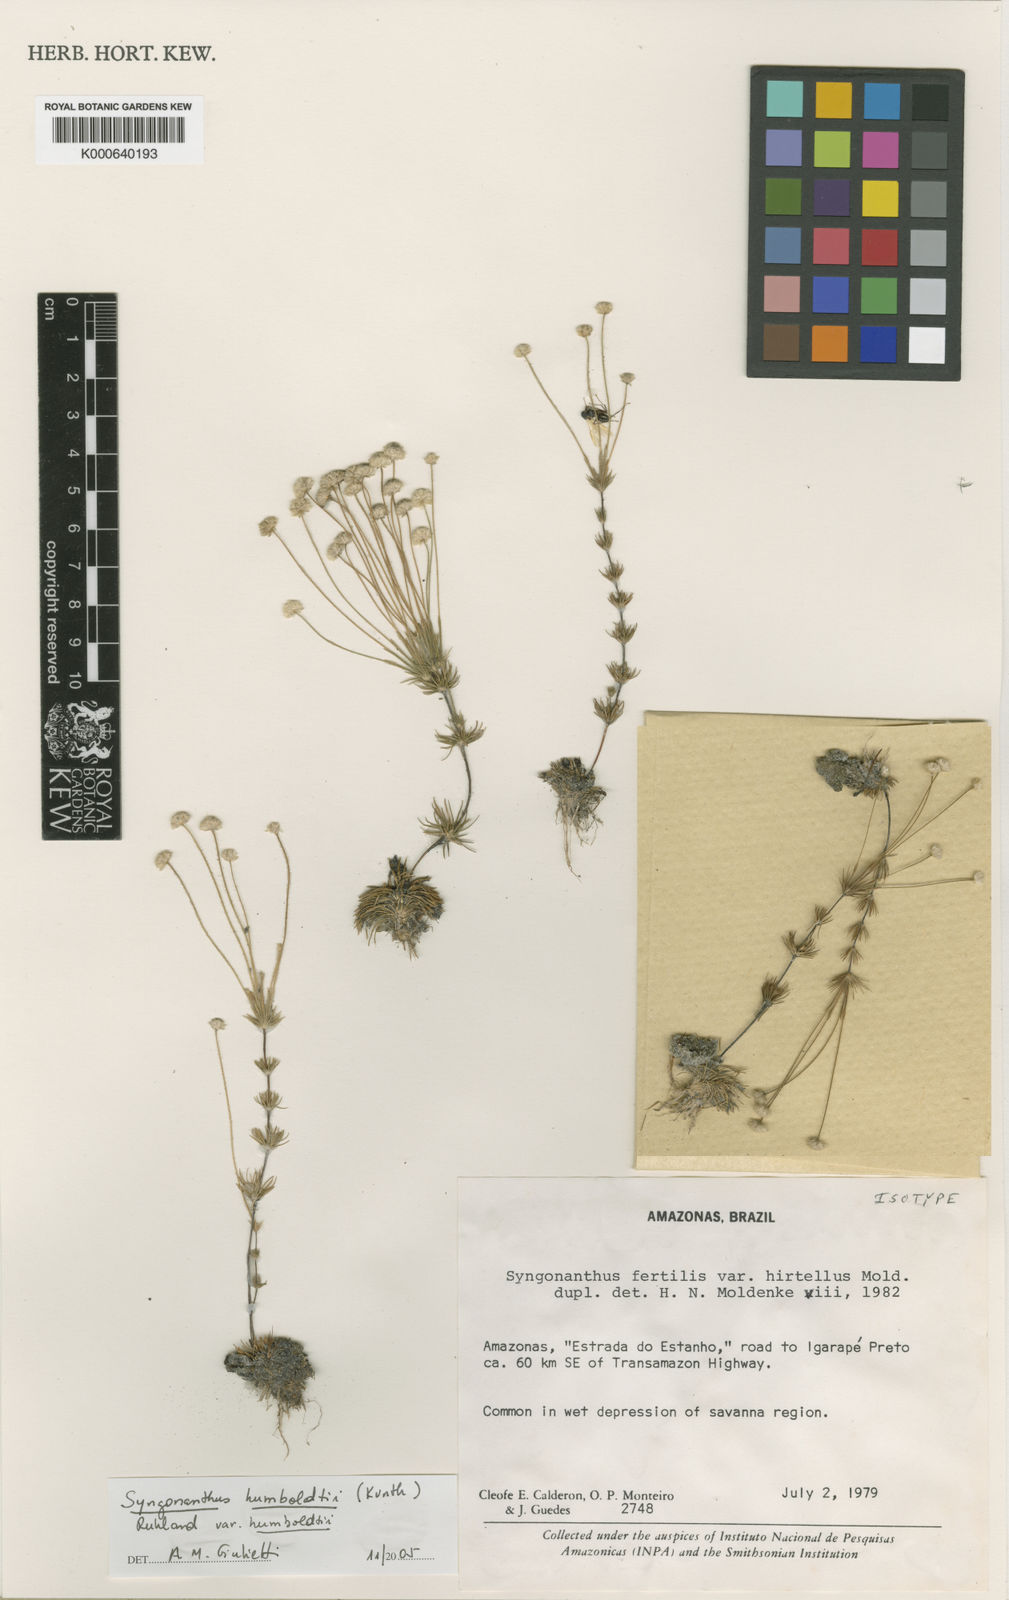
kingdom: Plantae
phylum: Tracheophyta
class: Liliopsida
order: Poales
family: Eriocaulaceae
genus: Syngonanthus
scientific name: Syngonanthus
